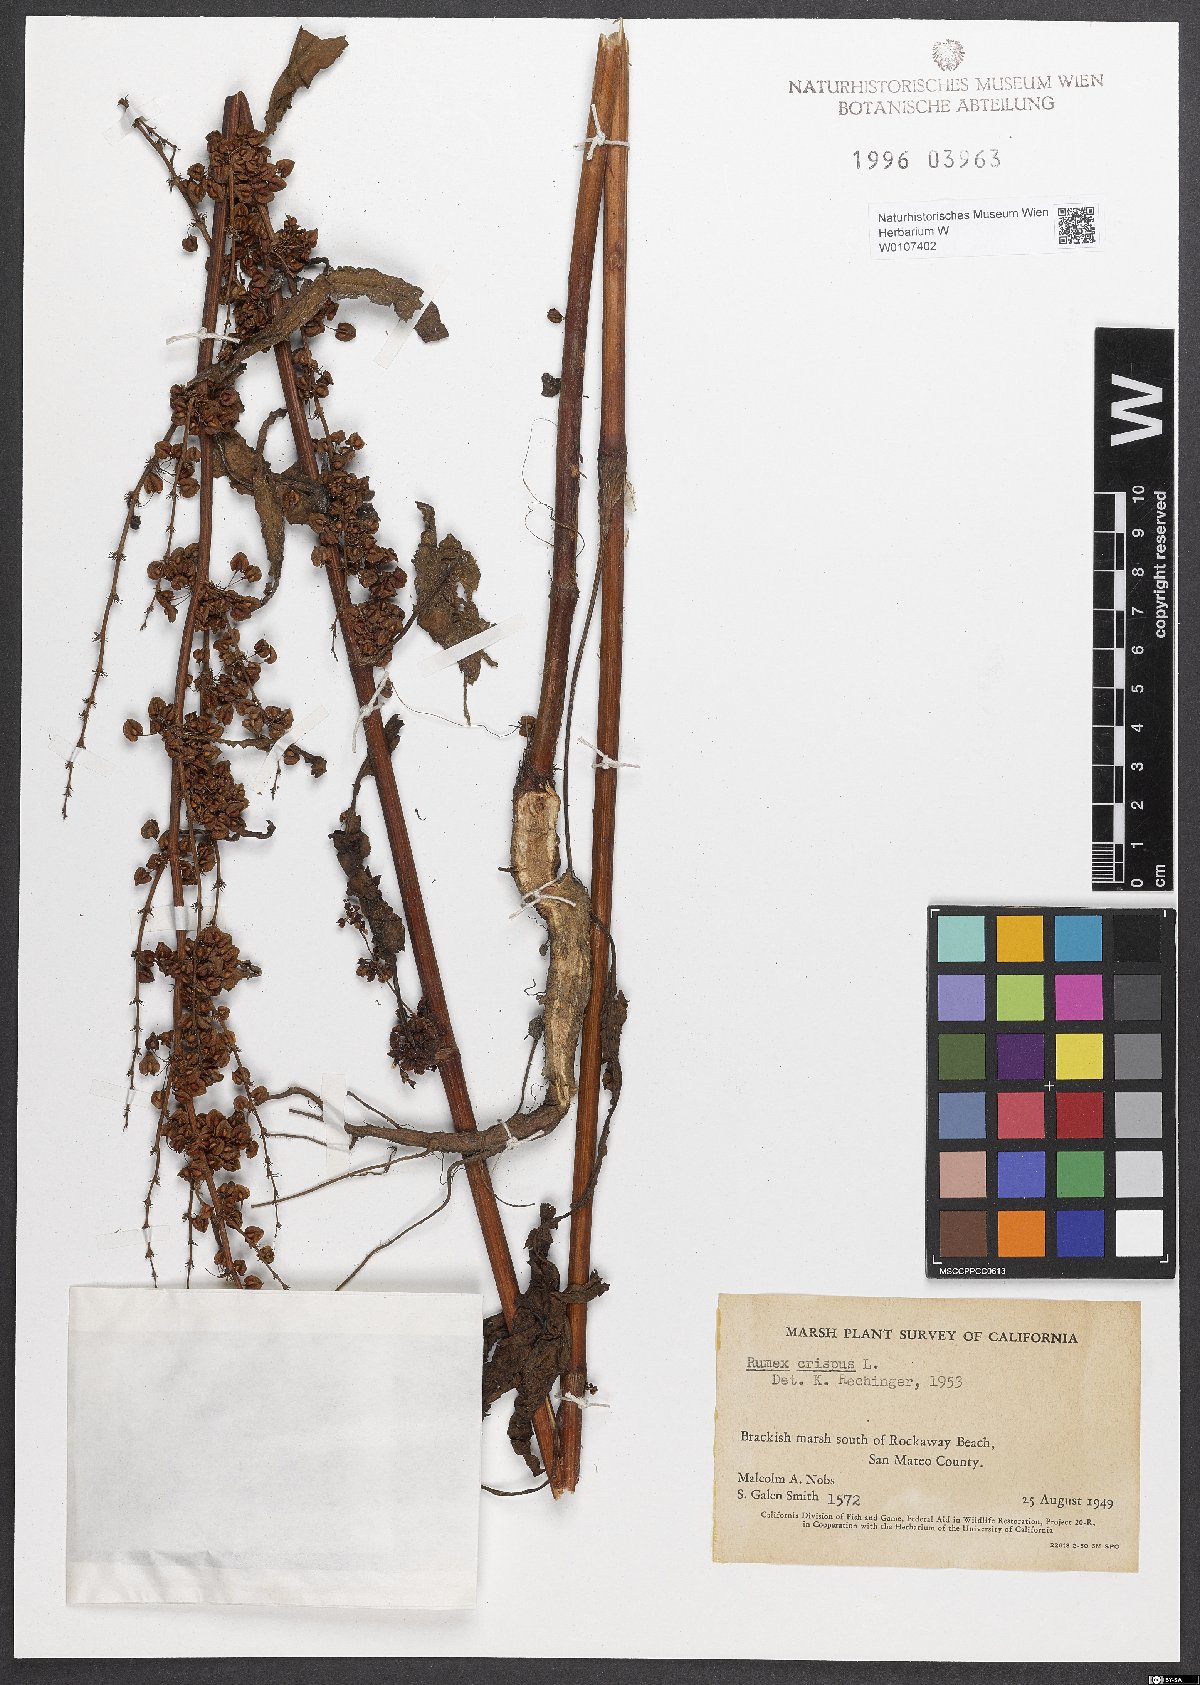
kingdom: Plantae
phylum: Tracheophyta
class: Magnoliopsida
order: Caryophyllales
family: Polygonaceae
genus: Rumex
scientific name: Rumex crispus
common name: Curled dock
